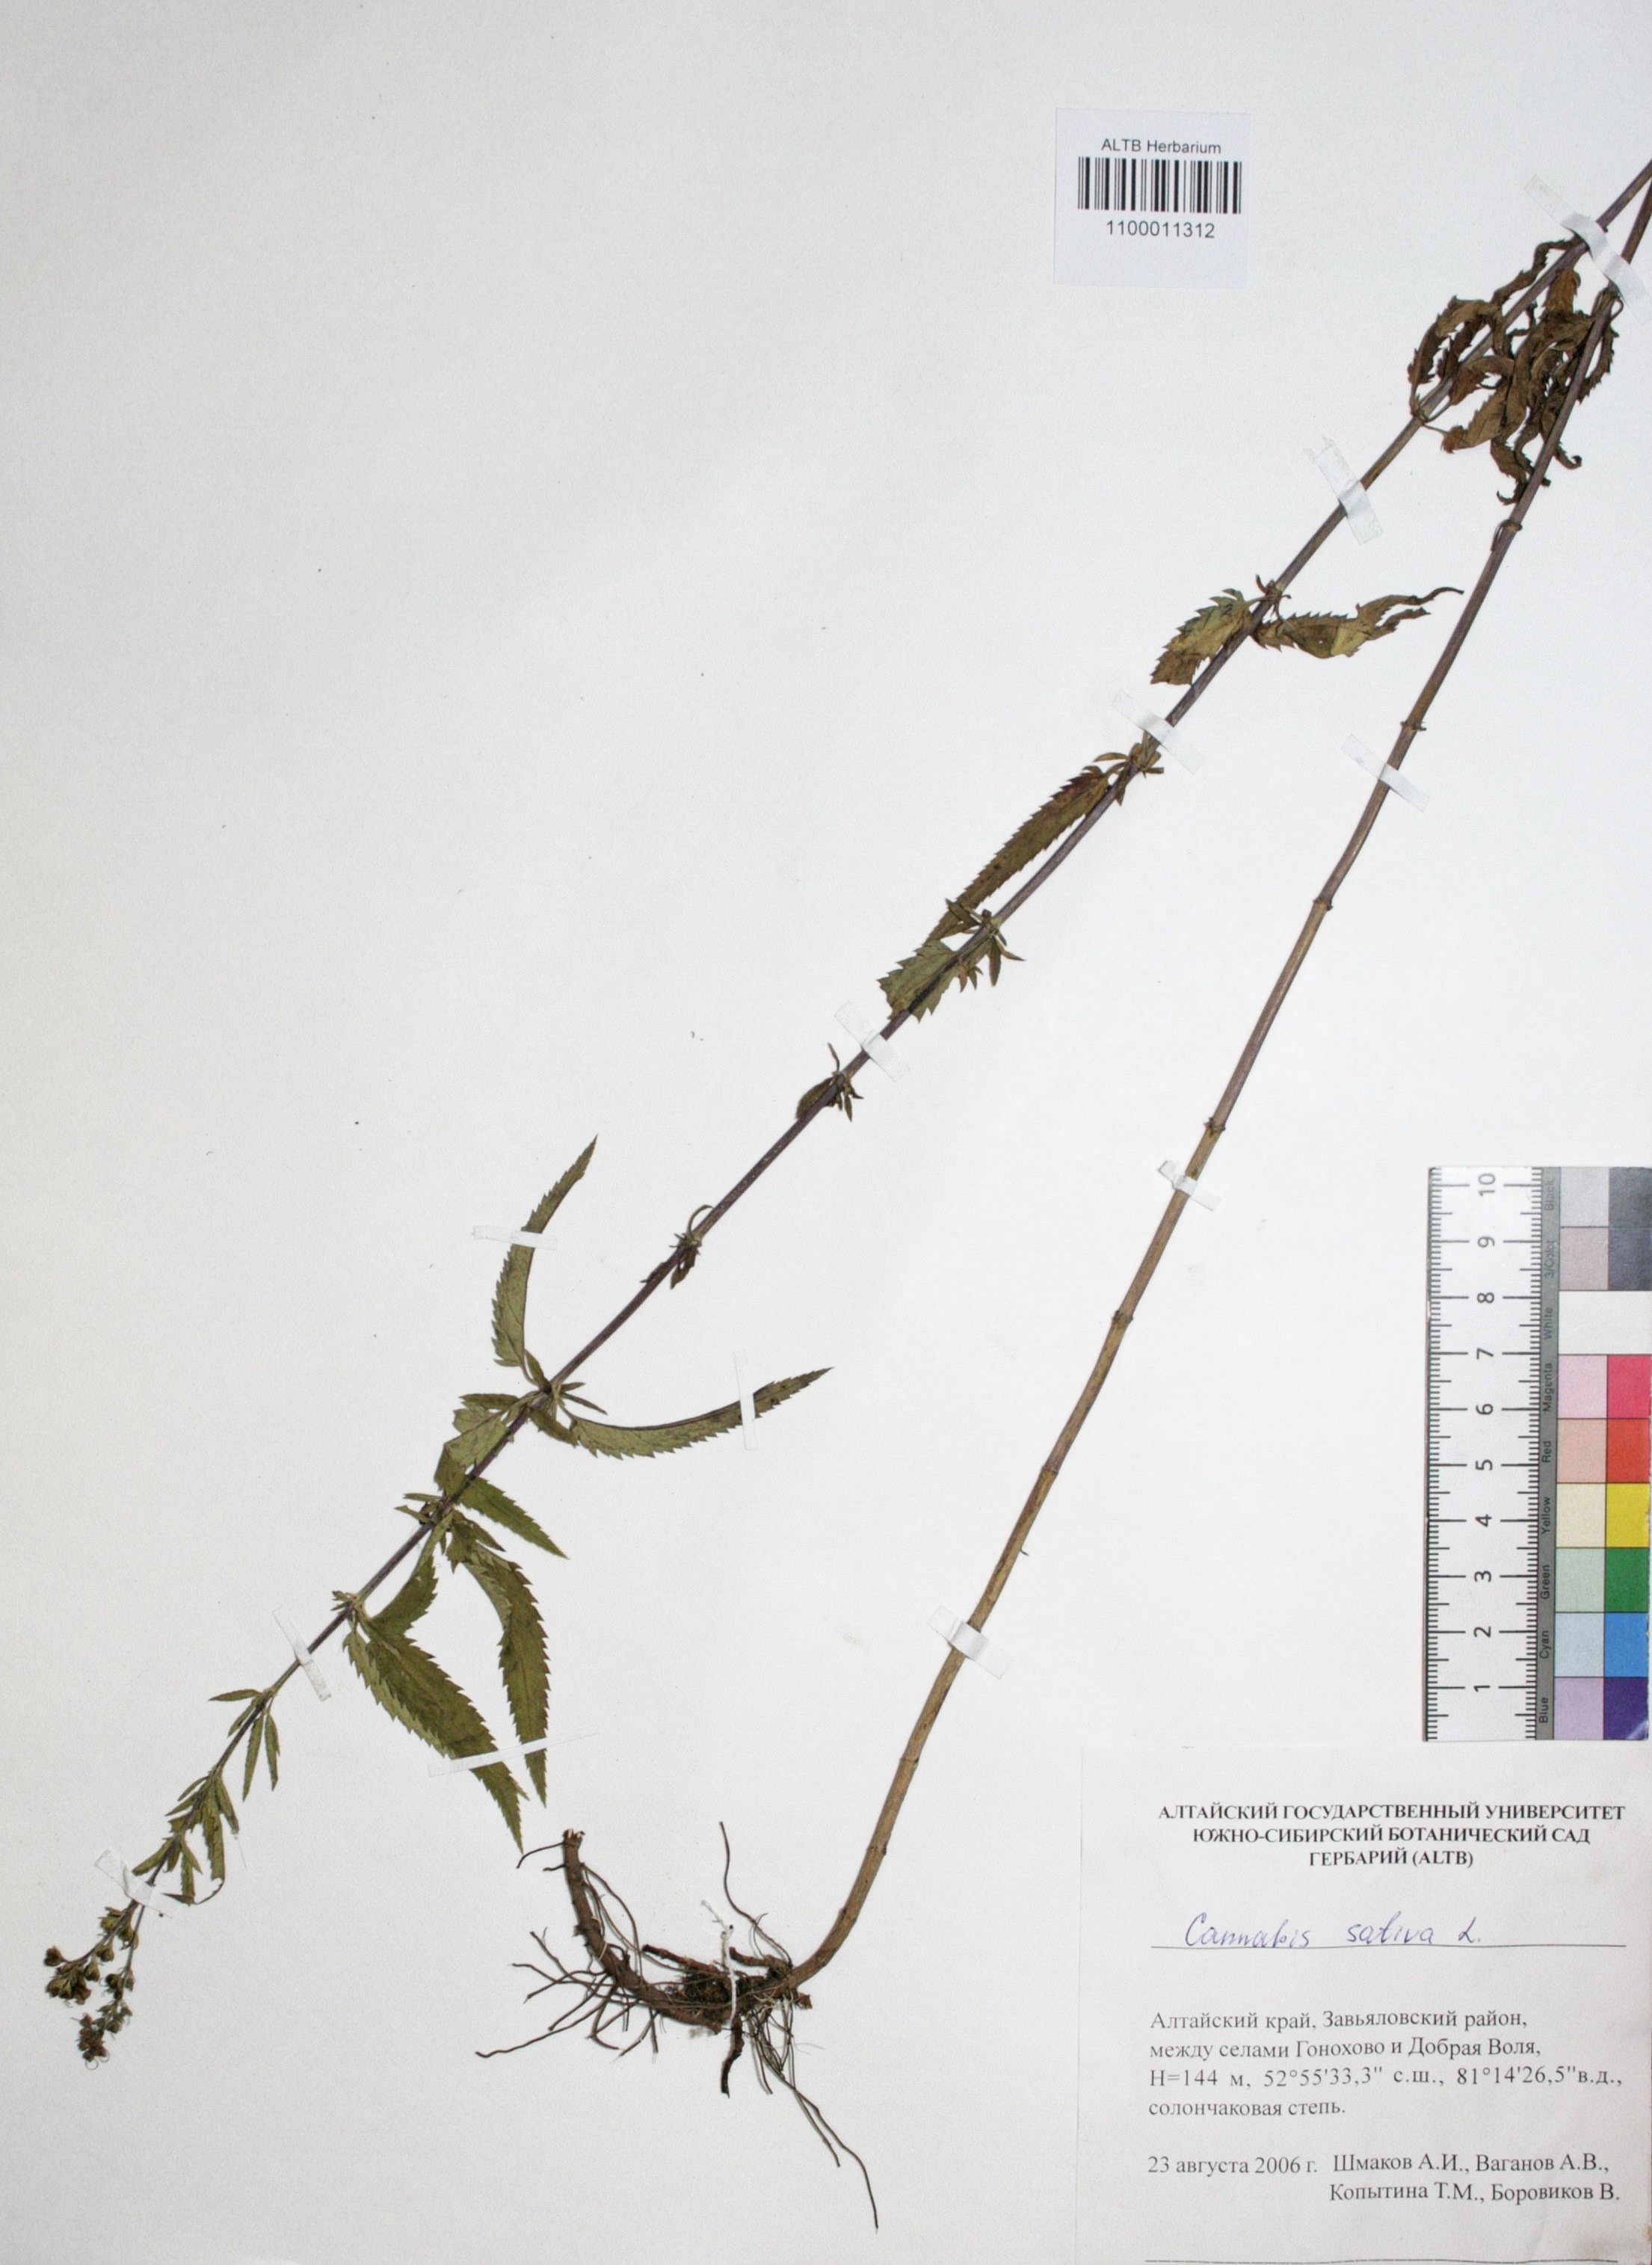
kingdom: Plantae
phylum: Tracheophyta
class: Magnoliopsida
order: Rosales
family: Cannabaceae
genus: Cannabis
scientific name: Cannabis sativa
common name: Hemp
